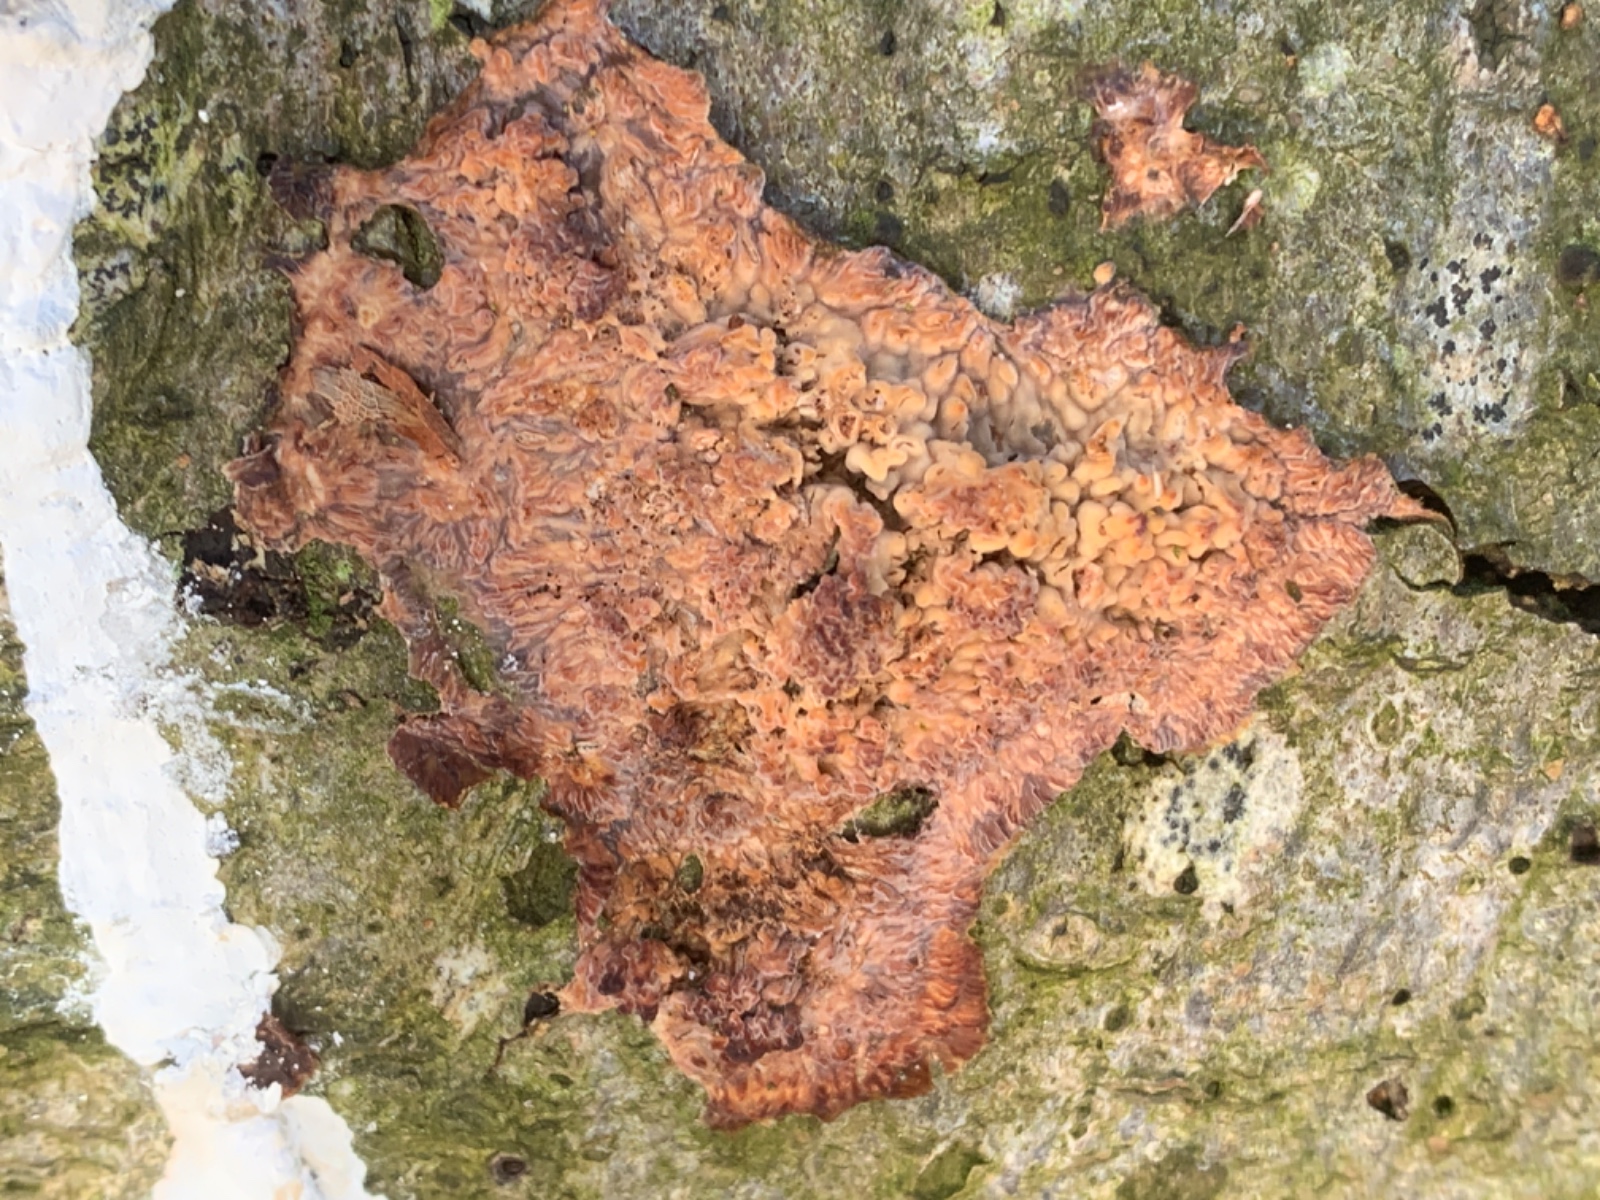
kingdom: Fungi
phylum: Basidiomycota
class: Agaricomycetes
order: Polyporales
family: Meruliaceae
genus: Phlebia
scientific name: Phlebia radiata
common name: stråle-åresvamp
